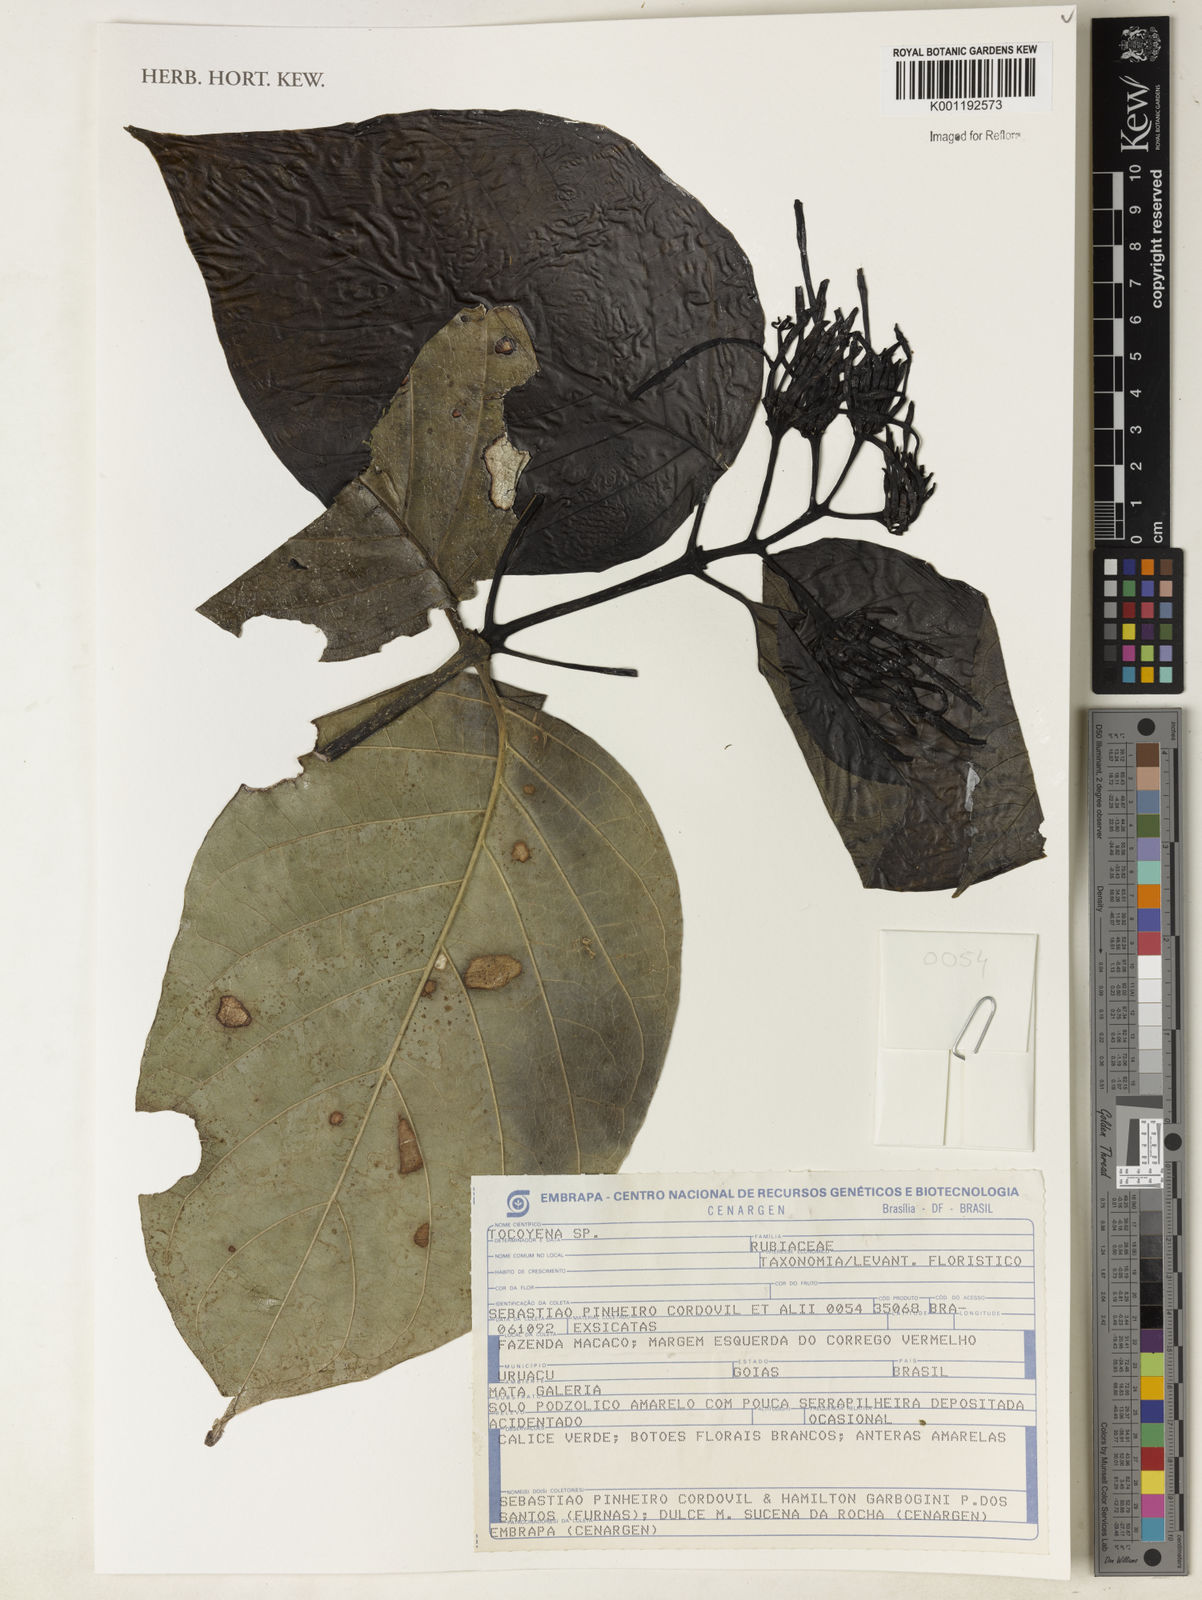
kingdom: Plantae
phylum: Tracheophyta
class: Magnoliopsida
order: Gentianales
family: Rubiaceae
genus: Rudgea
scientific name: Rudgea
